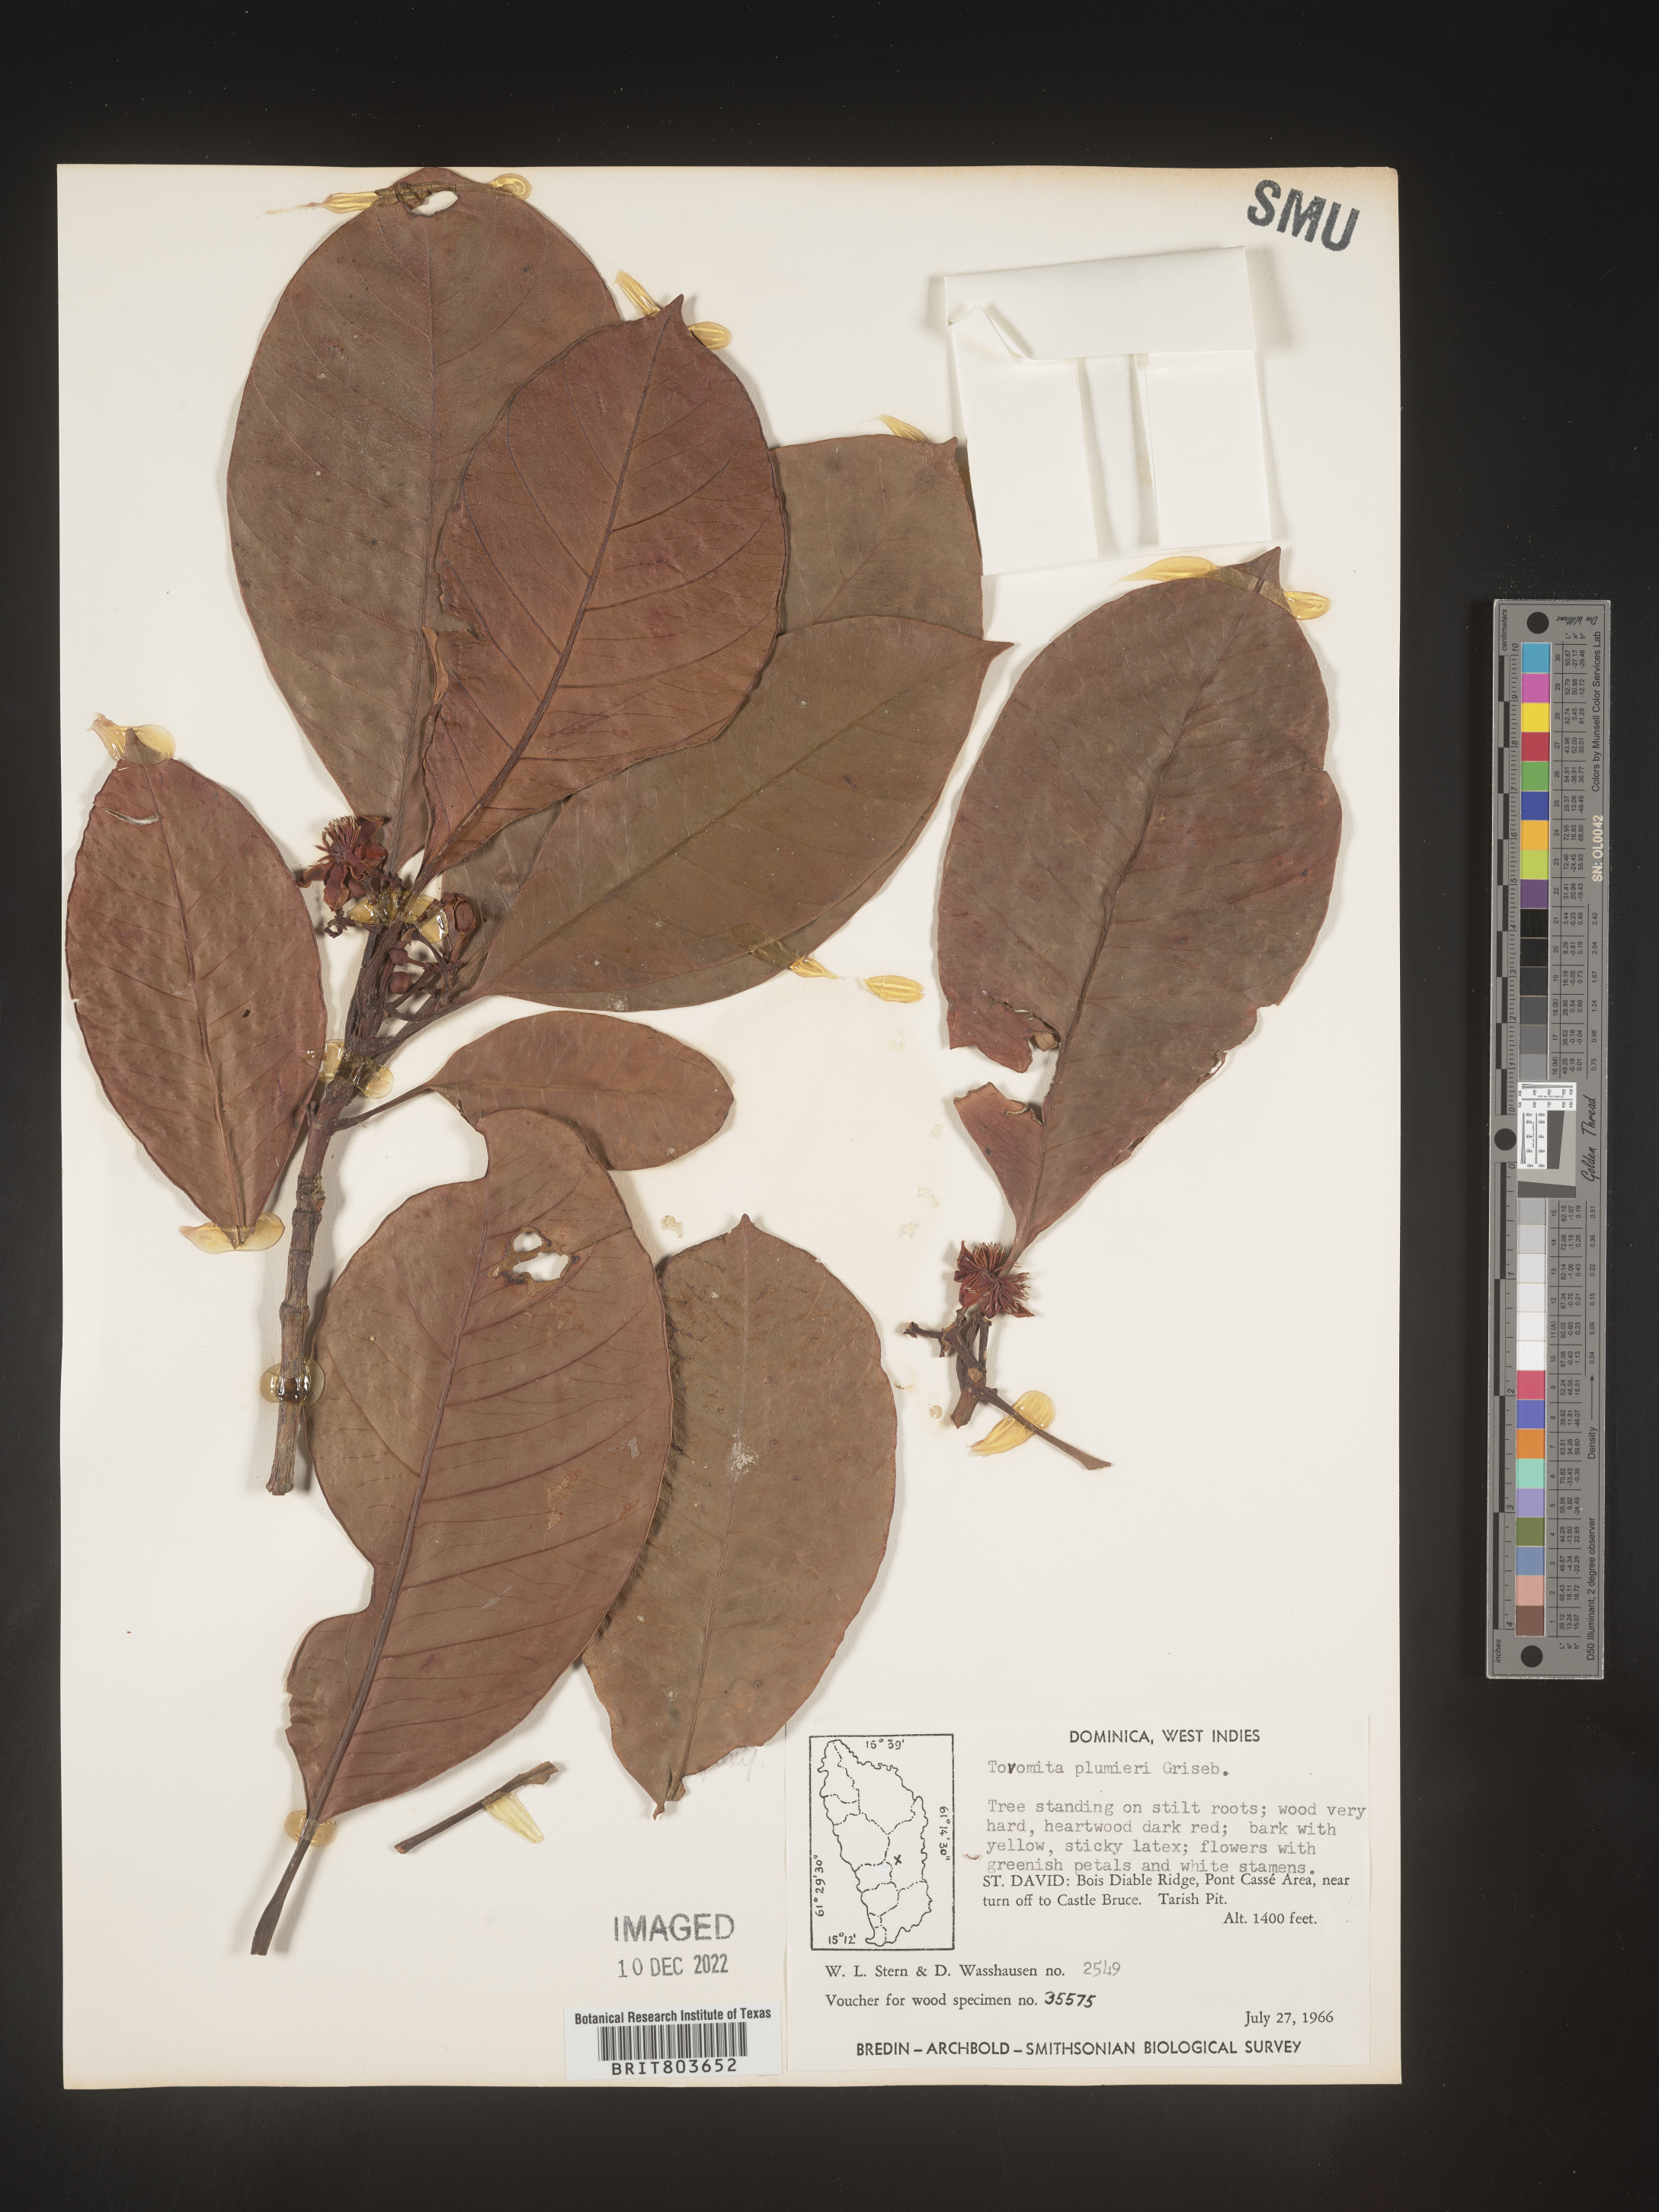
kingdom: Plantae
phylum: Tracheophyta
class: Magnoliopsida
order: Malpighiales
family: Clusiaceae
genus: Tovomita
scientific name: Tovomita
